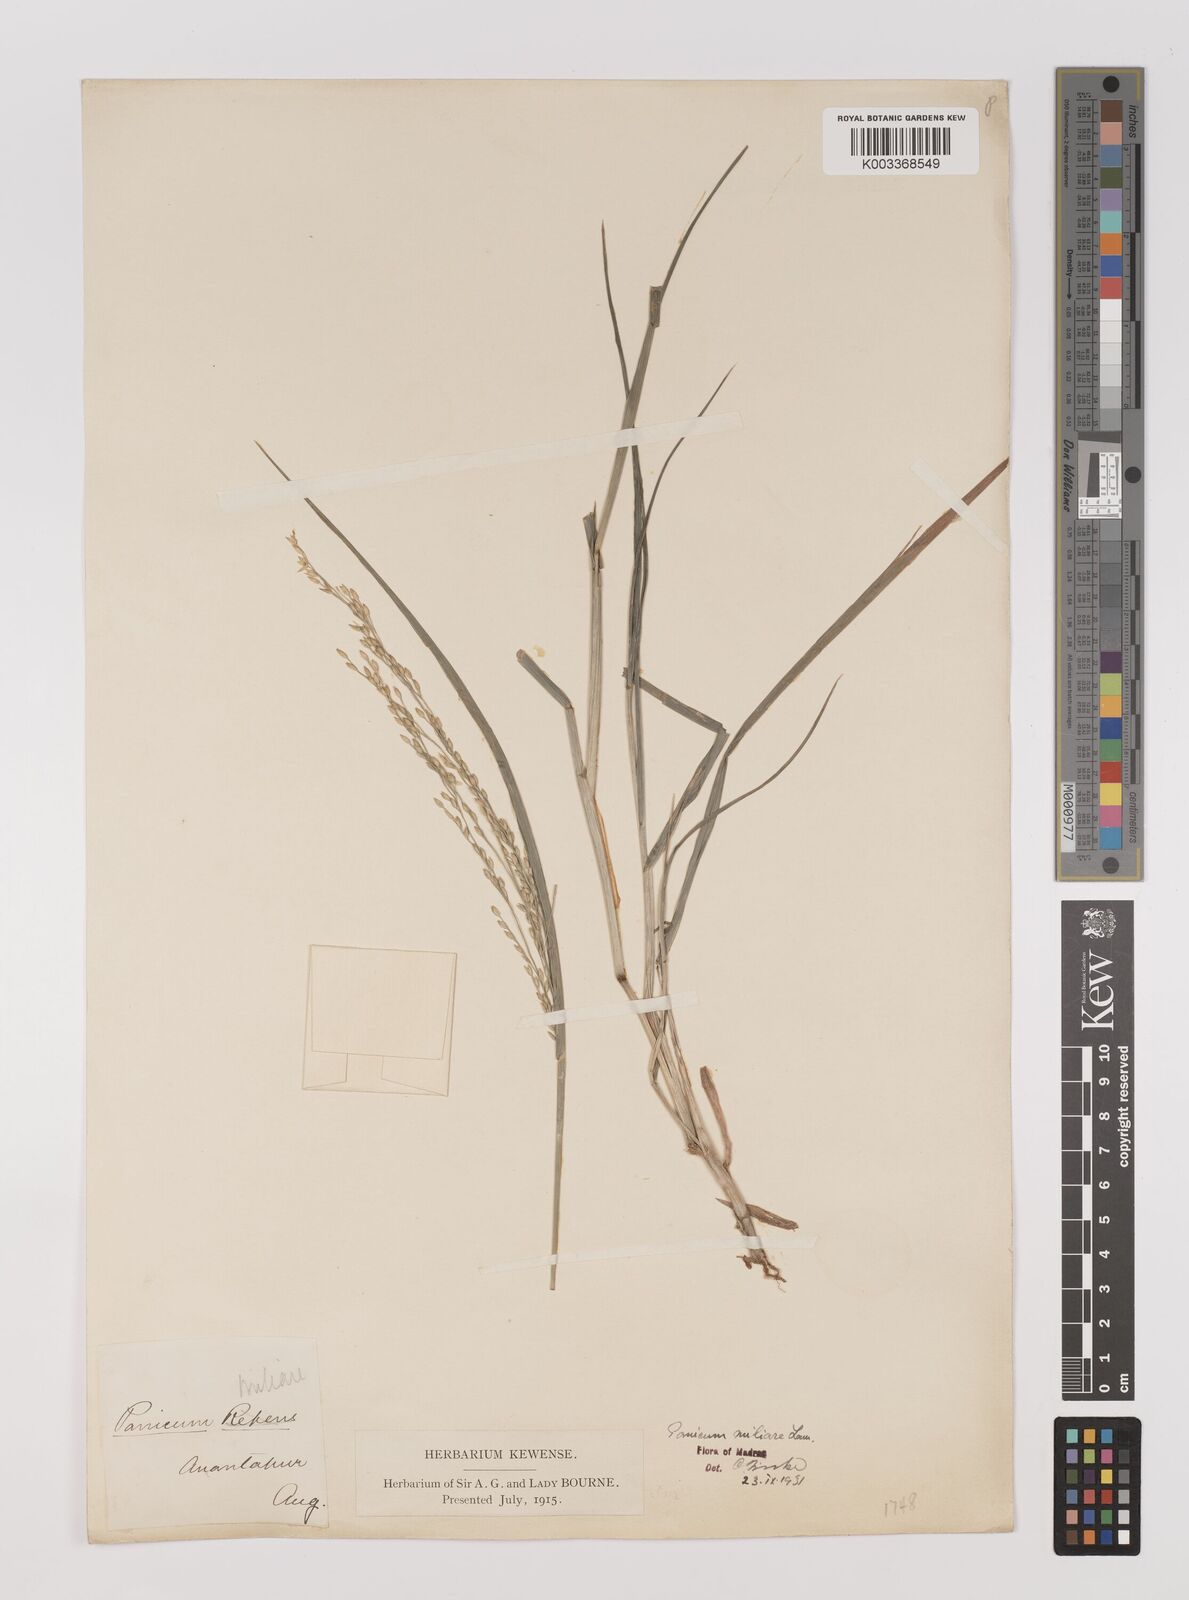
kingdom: Plantae
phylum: Tracheophyta
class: Liliopsida
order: Poales
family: Poaceae
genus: Panicum
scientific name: Panicum sumatrense
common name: Little millet
